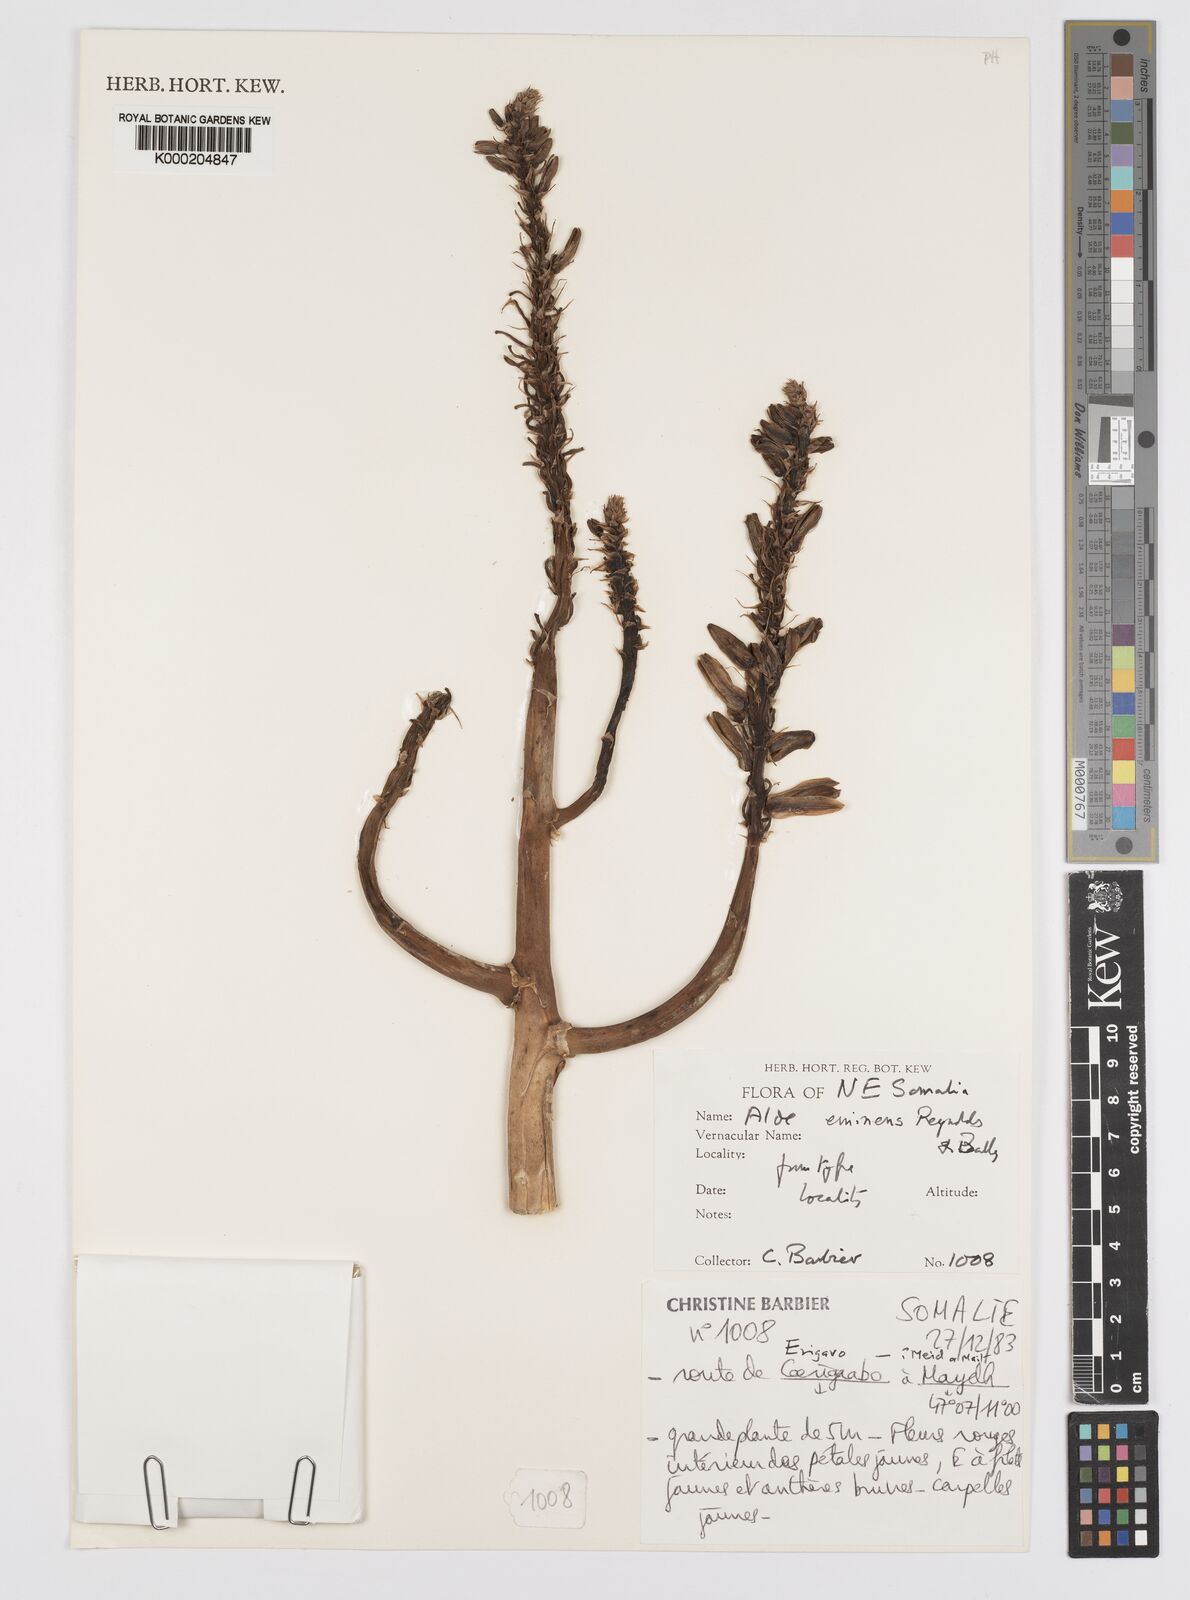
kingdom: Plantae
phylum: Tracheophyta
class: Liliopsida
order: Asparagales
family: Asphodelaceae
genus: Aloidendron
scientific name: Aloidendron eminens
